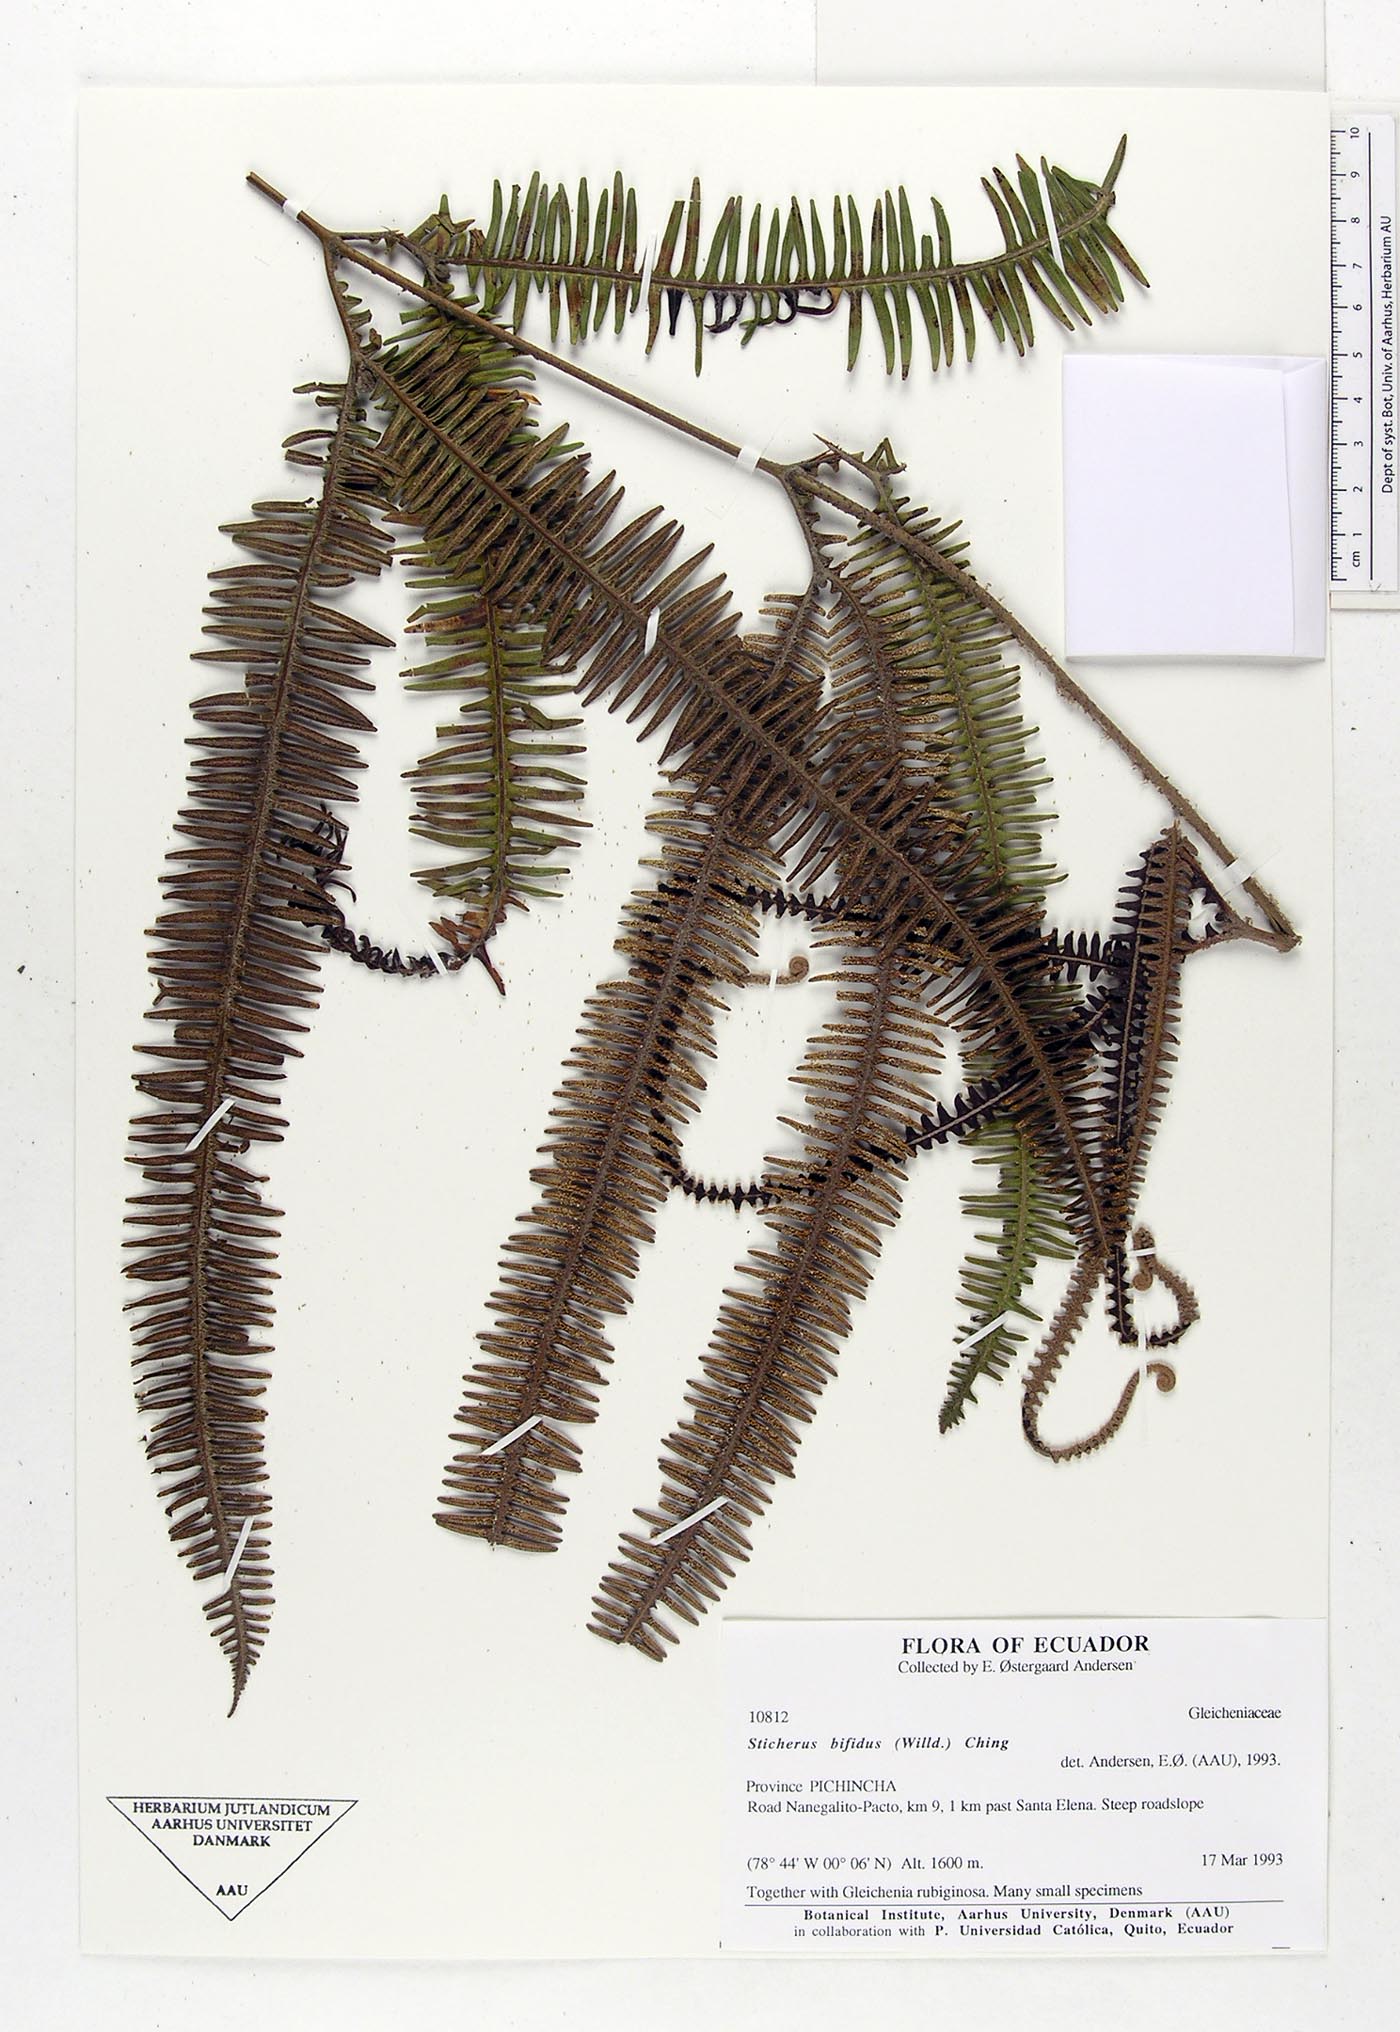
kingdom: Plantae
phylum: Tracheophyta
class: Polypodiopsida
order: Gleicheniales
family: Gleicheniaceae
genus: Sticherus
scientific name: Sticherus bifidus
